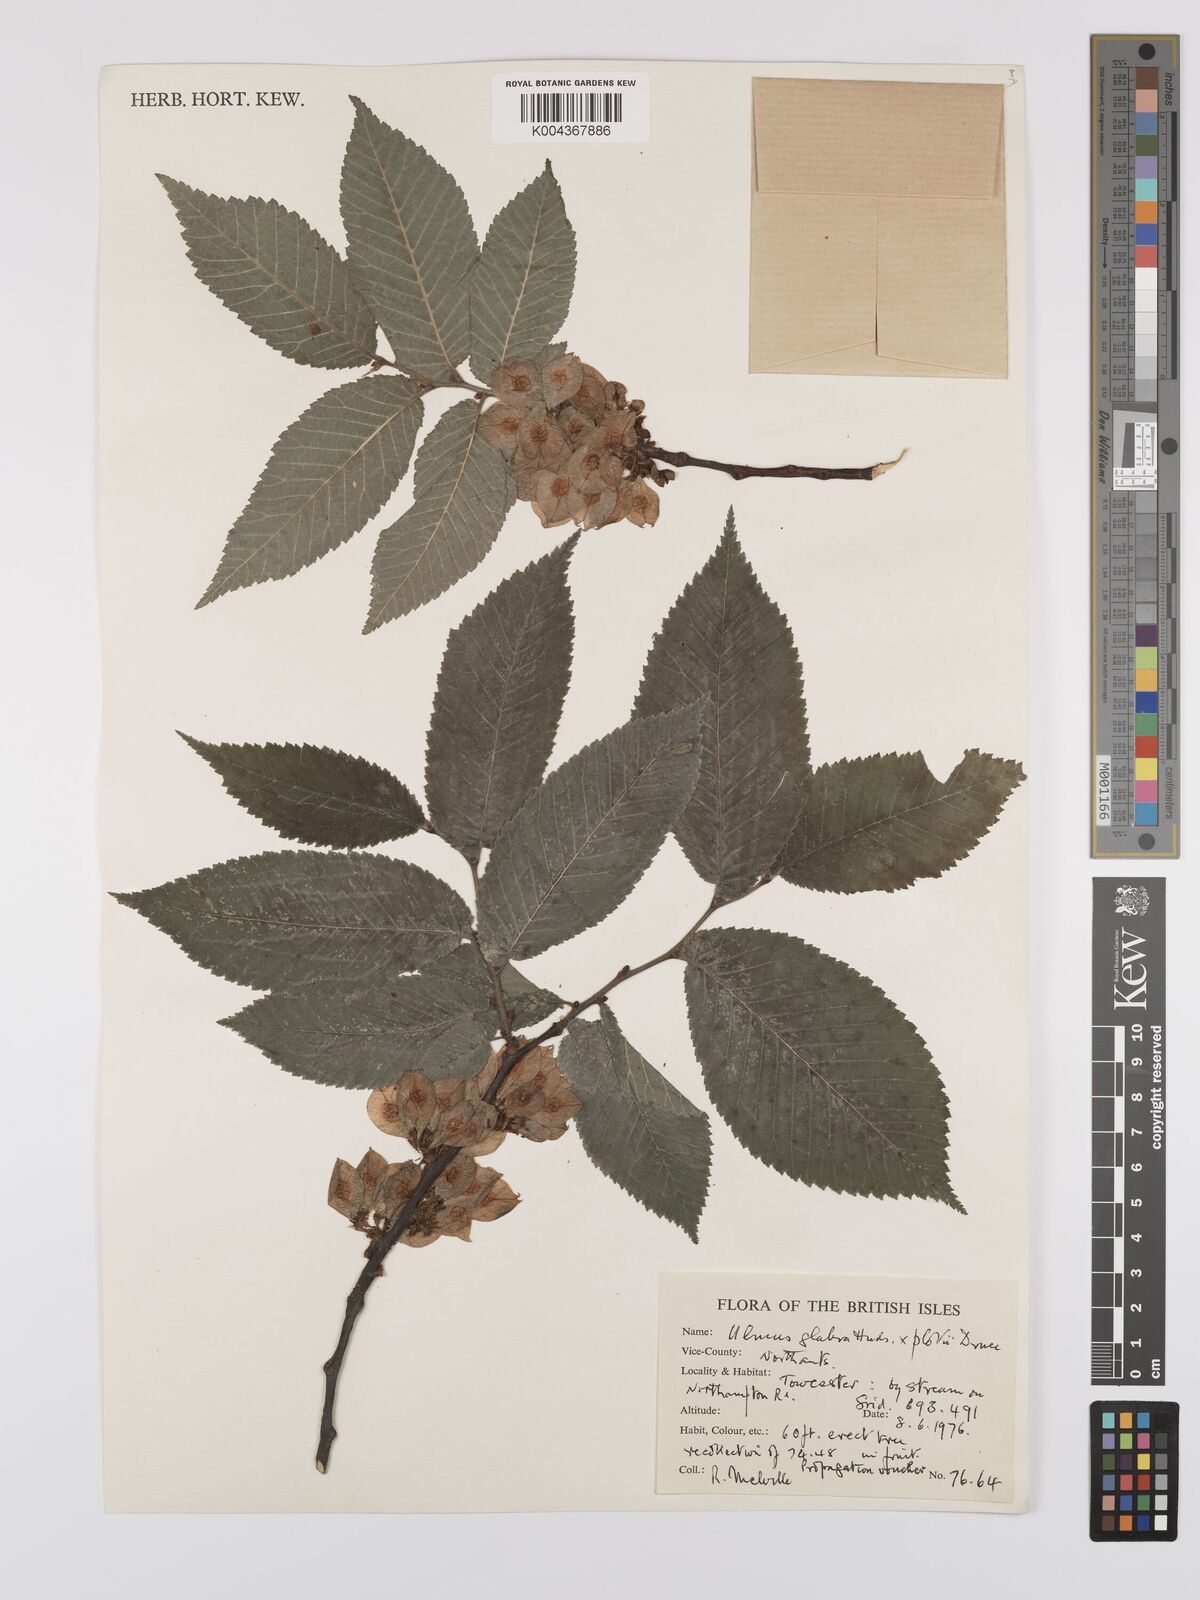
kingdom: Plantae
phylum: Tracheophyta
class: Magnoliopsida
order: Rosales
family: Ulmaceae
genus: Ulmus
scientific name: Ulmus glabra
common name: Wych elm
